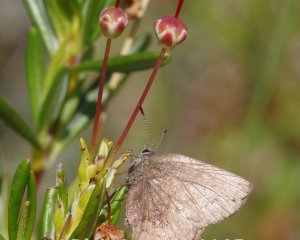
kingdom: Animalia
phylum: Arthropoda
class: Insecta
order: Lepidoptera
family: Lycaenidae
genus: Incisalia
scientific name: Incisalia irioides
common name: Brown Elfin
